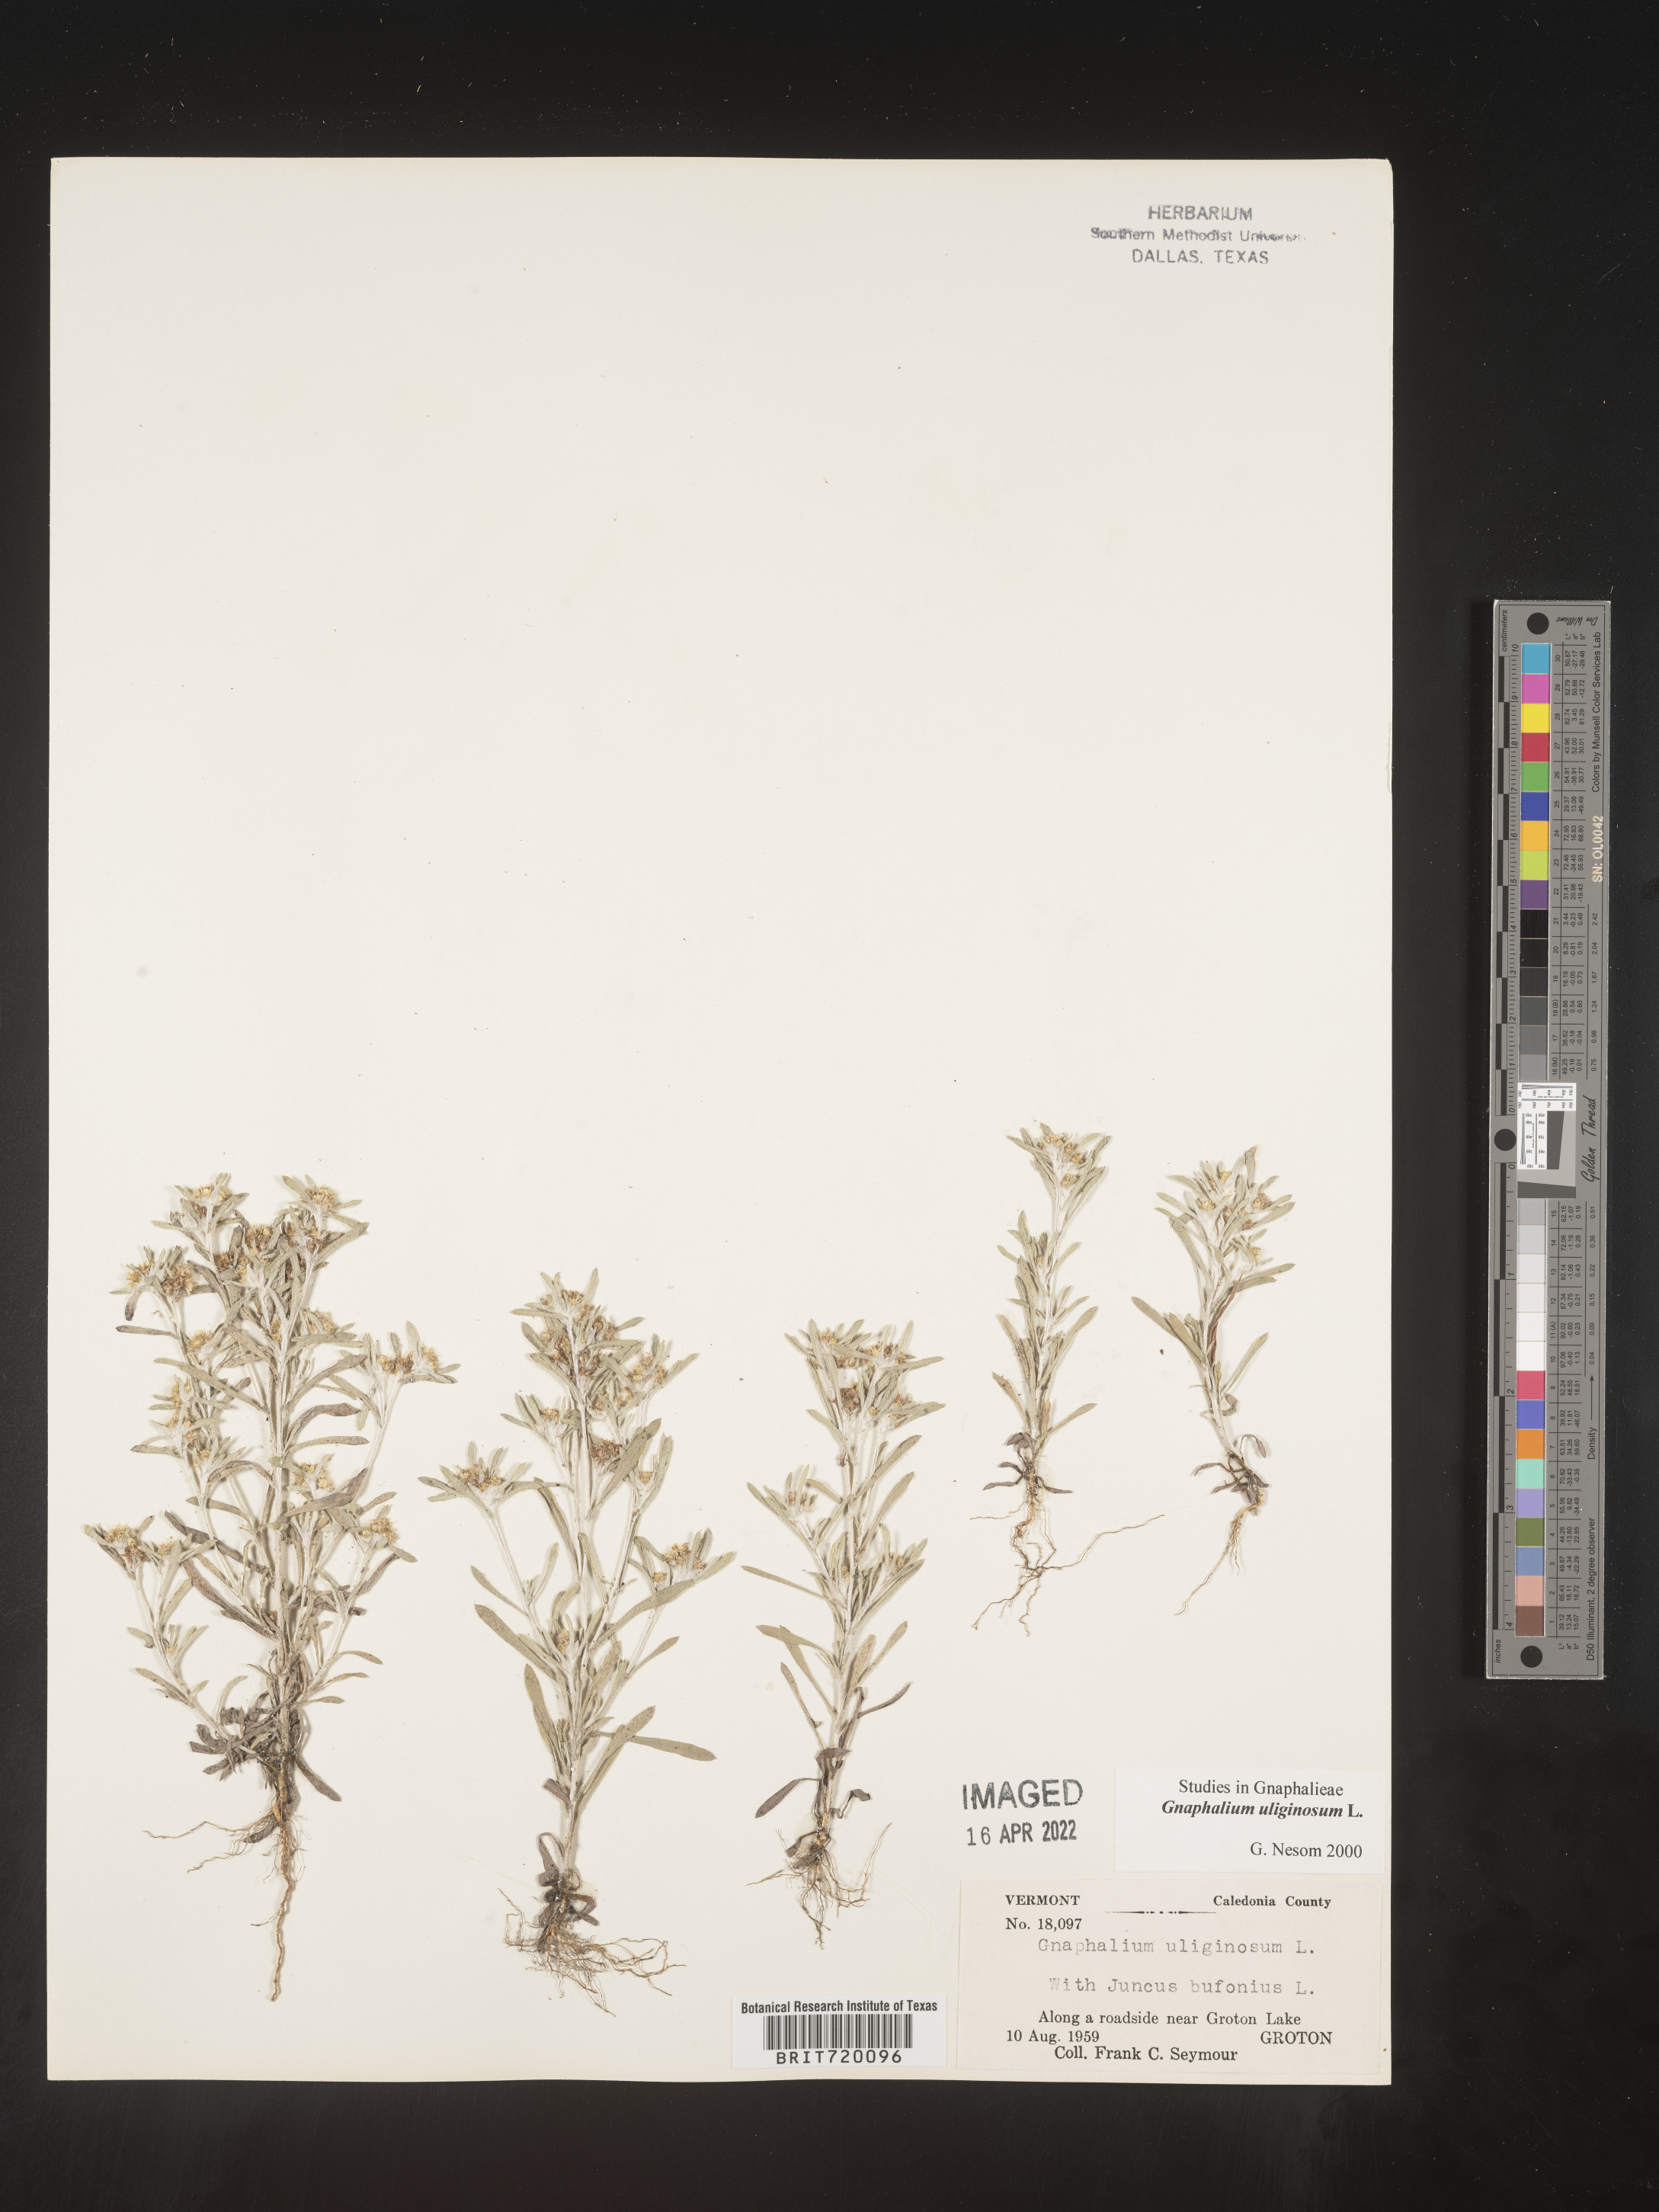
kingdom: Plantae
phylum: Tracheophyta
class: Magnoliopsida
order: Asterales
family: Asteraceae
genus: Gnaphalium
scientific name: Gnaphalium uliginosum
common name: Marsh cudweed
